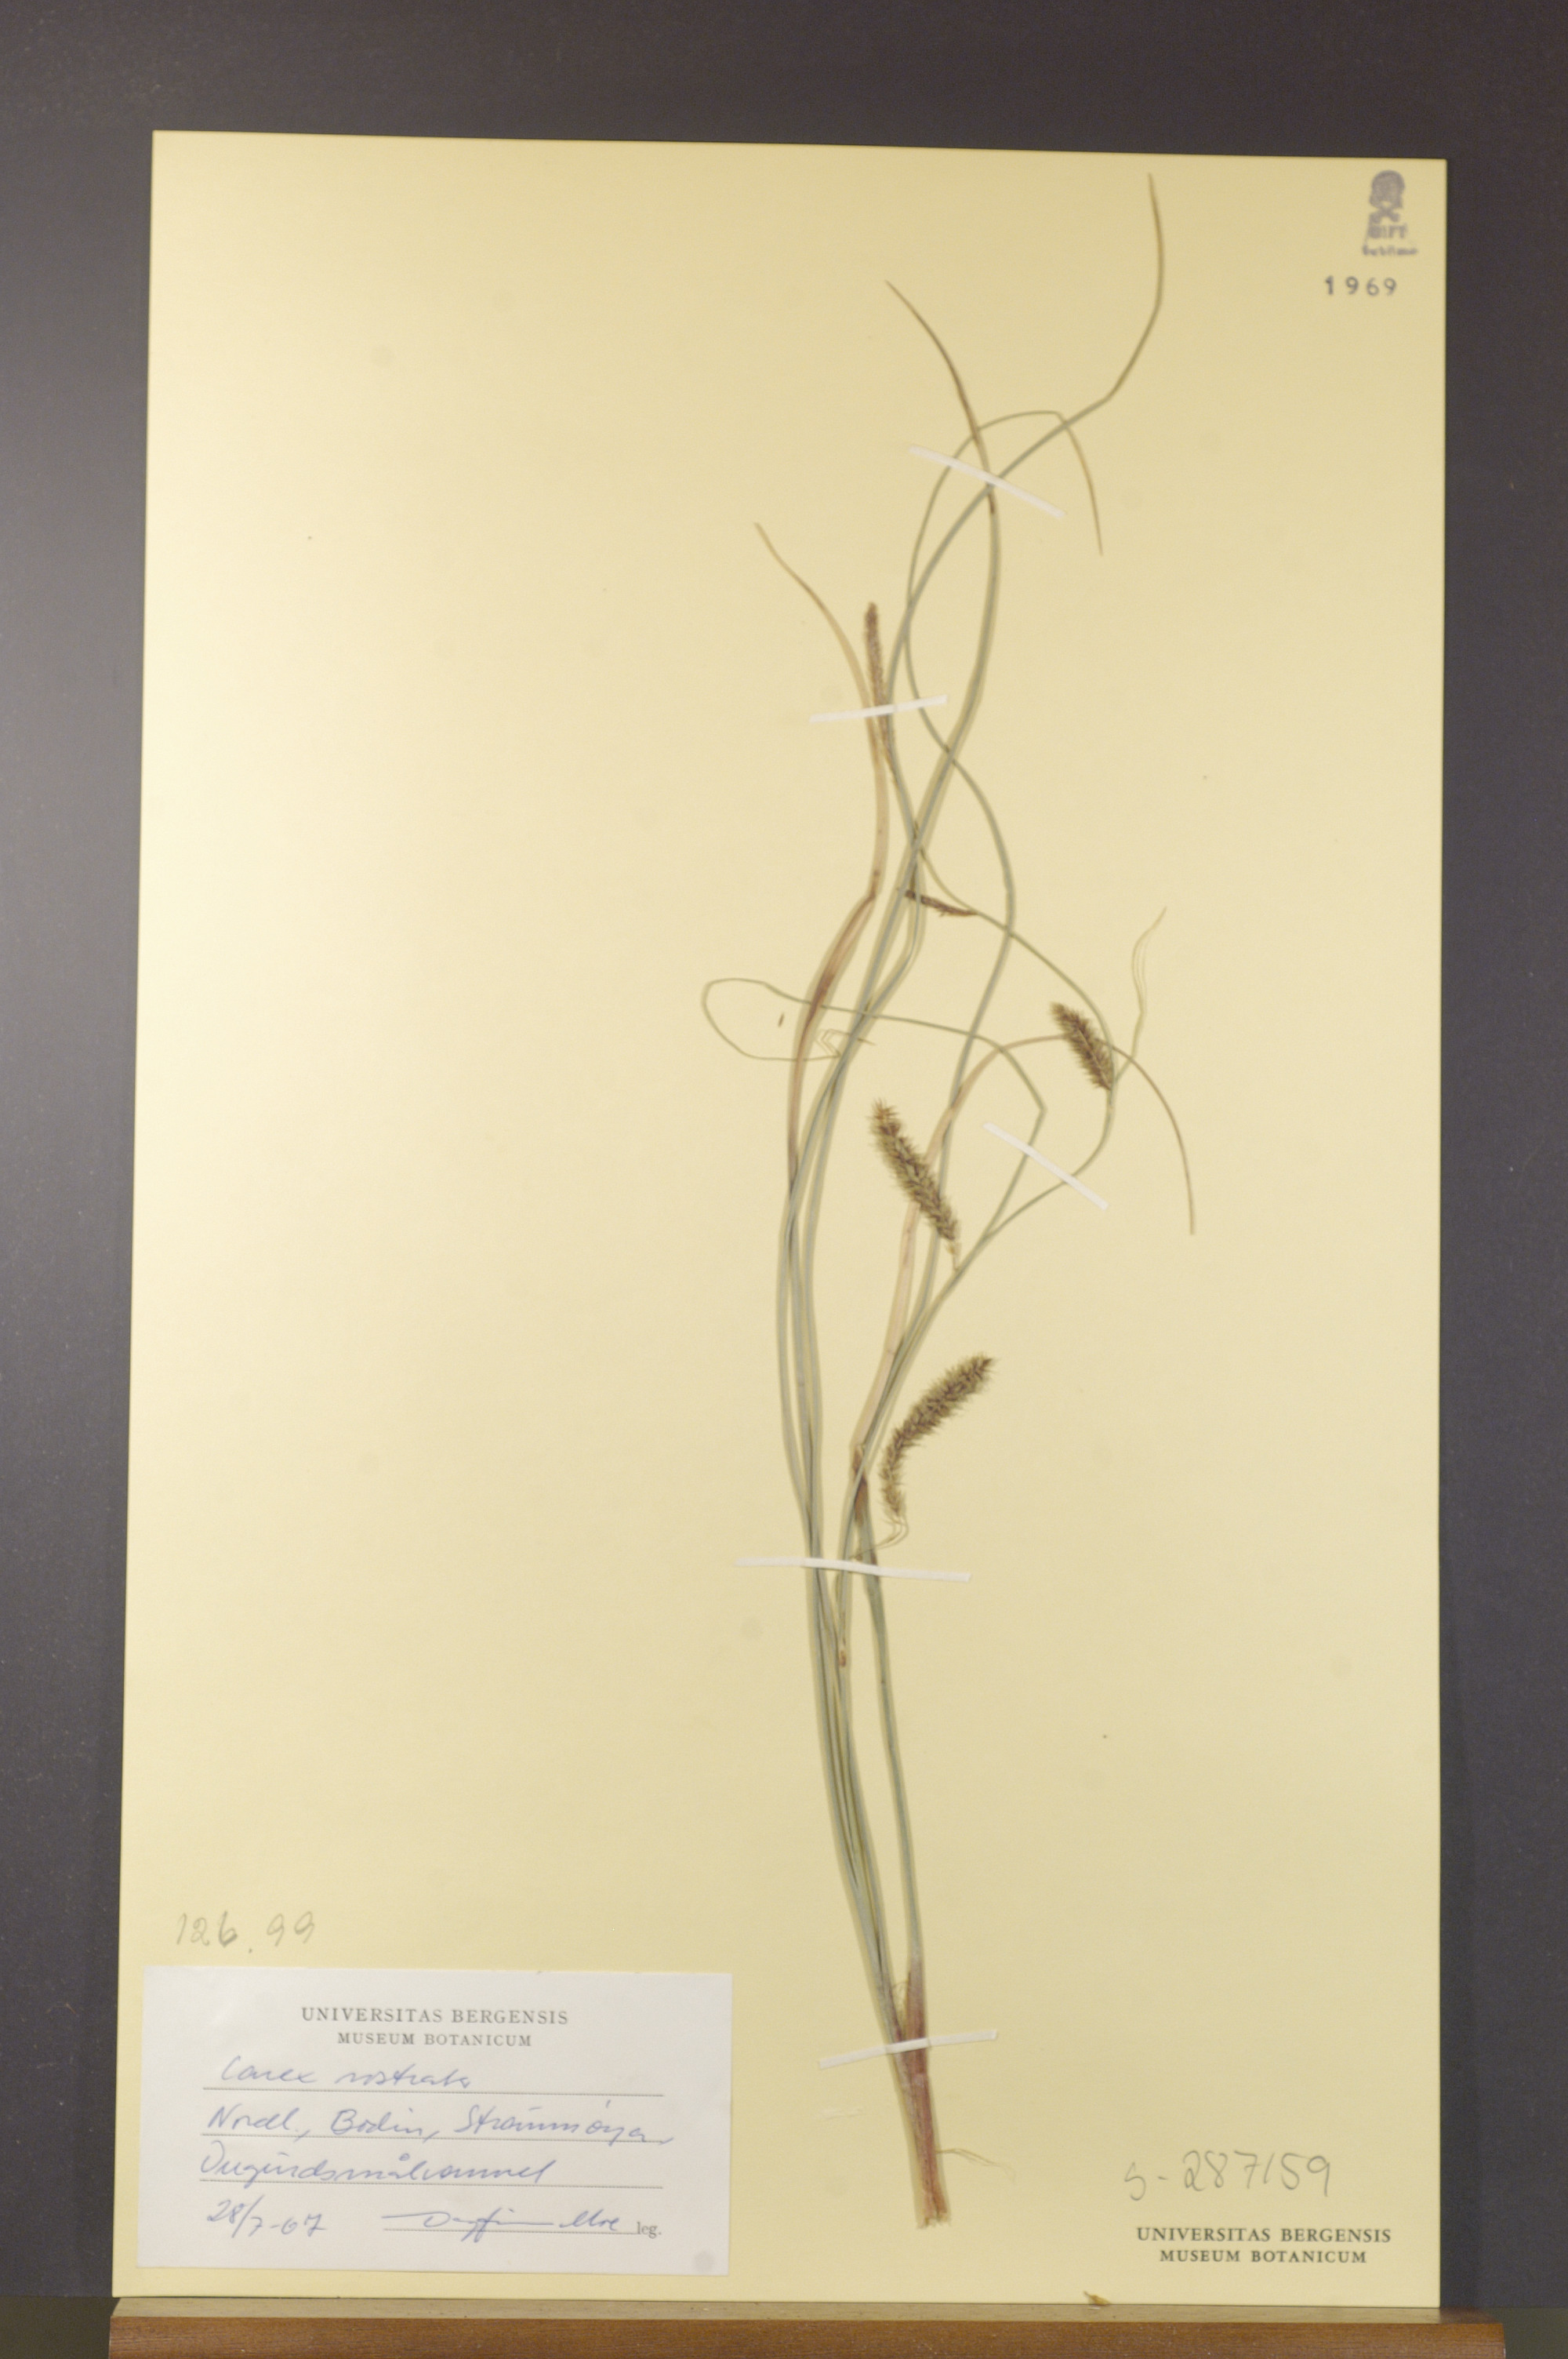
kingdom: Plantae
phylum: Tracheophyta
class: Liliopsida
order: Poales
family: Cyperaceae
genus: Carex
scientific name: Carex rostrata
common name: Bottle sedge
